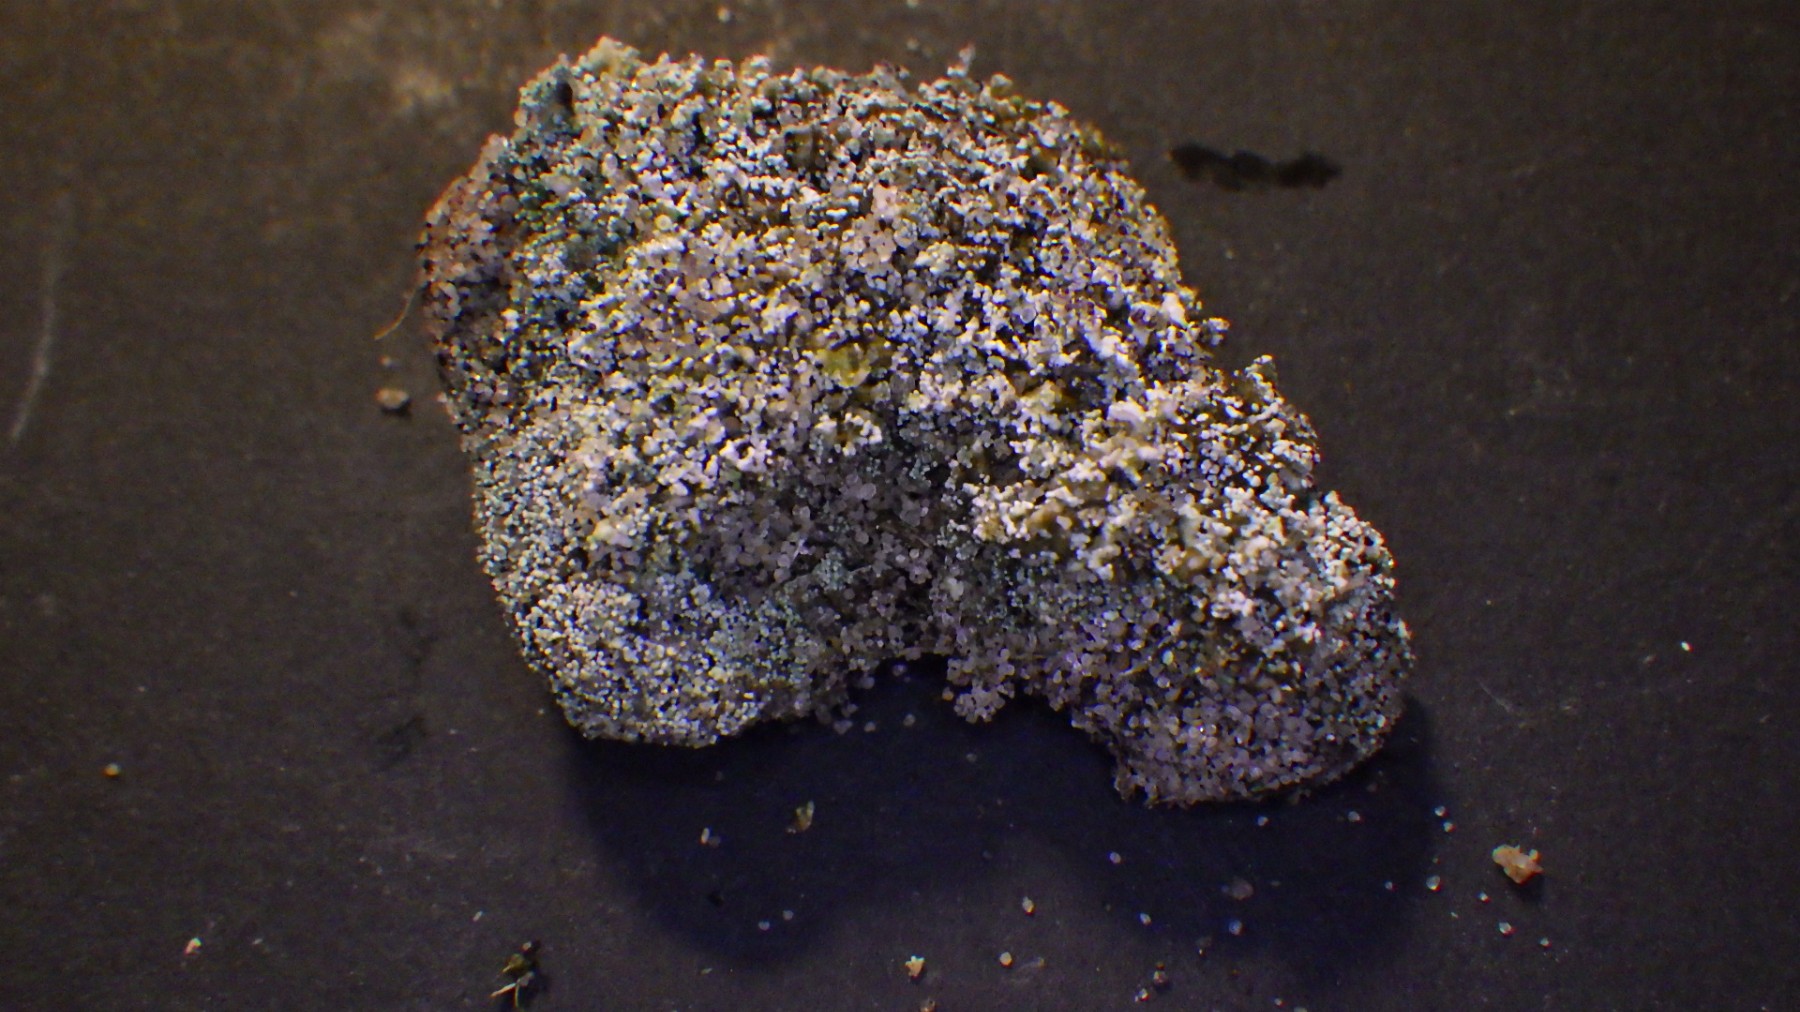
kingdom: Fungi
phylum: Ascomycota
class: Lecanoromycetes
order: Lecanorales
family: Stereocaulaceae
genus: Stereocaulon
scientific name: Stereocaulon condensatum
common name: lav korallav
